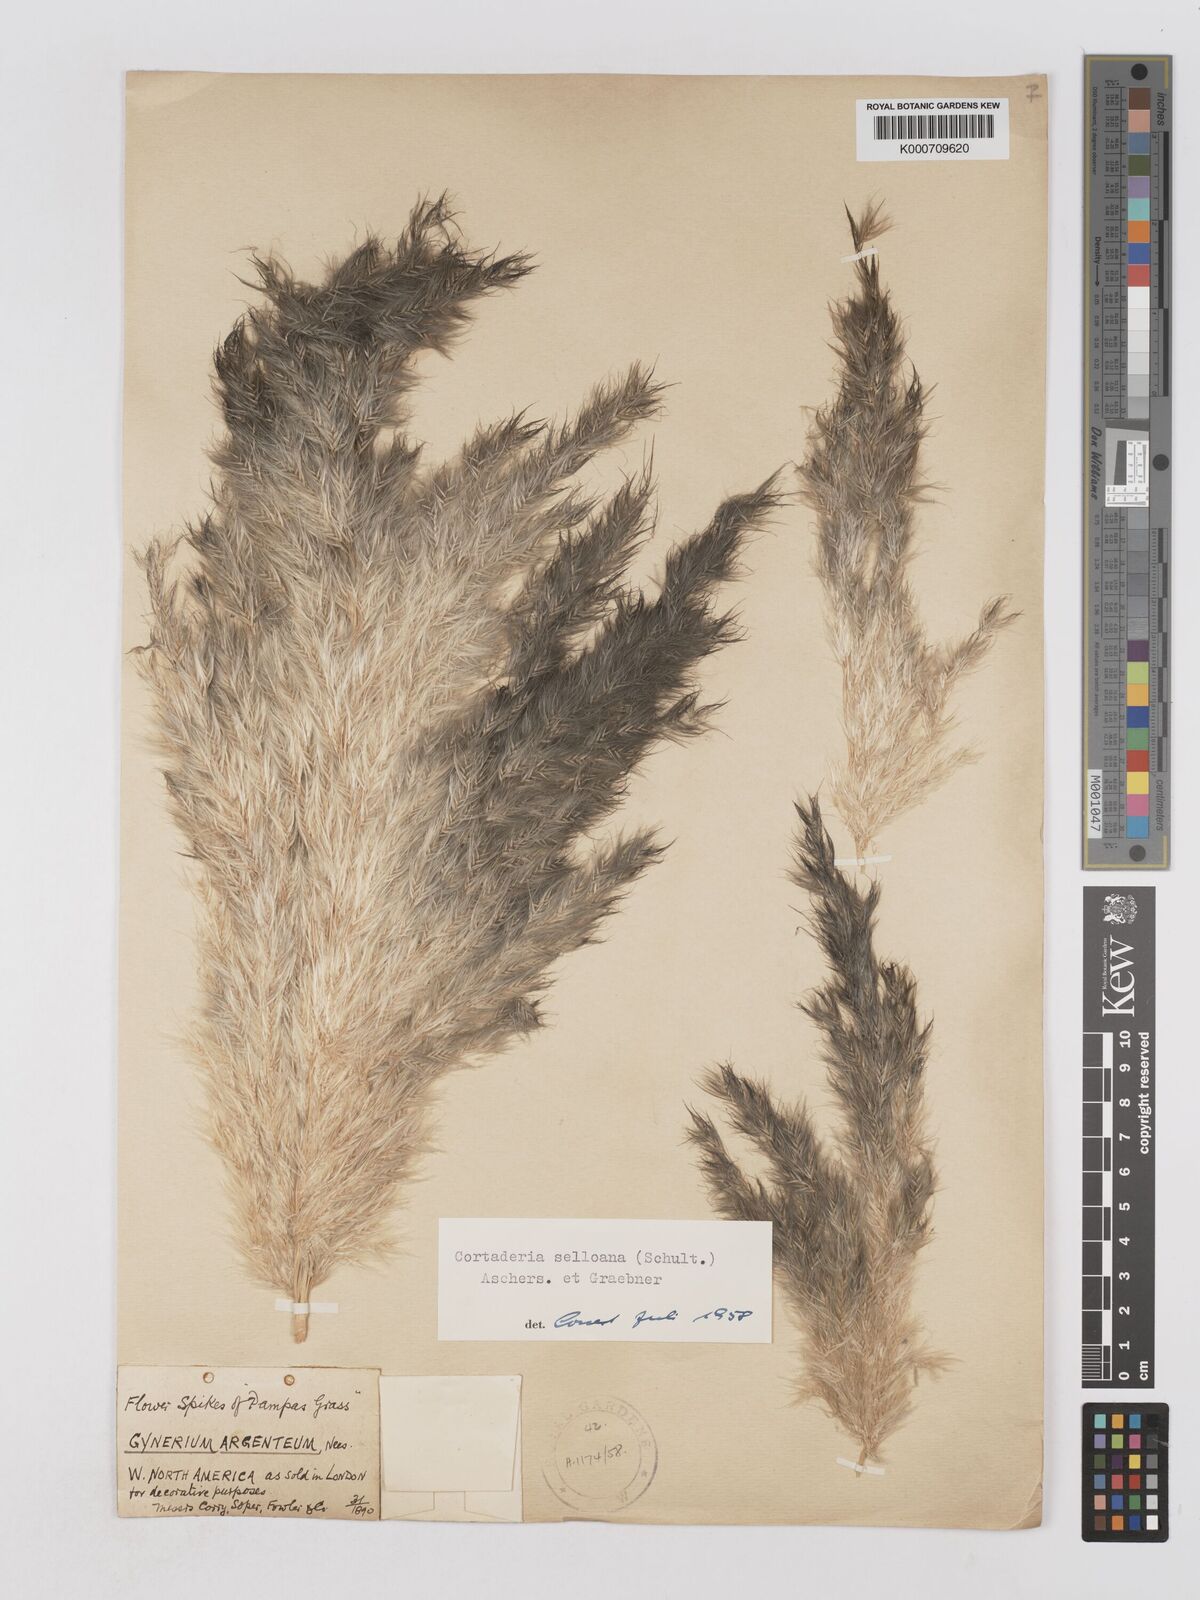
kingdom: Plantae
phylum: Tracheophyta
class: Liliopsida
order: Poales
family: Poaceae
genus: Cortaderia
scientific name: Cortaderia selloana
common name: Uruguayan pampas grass
